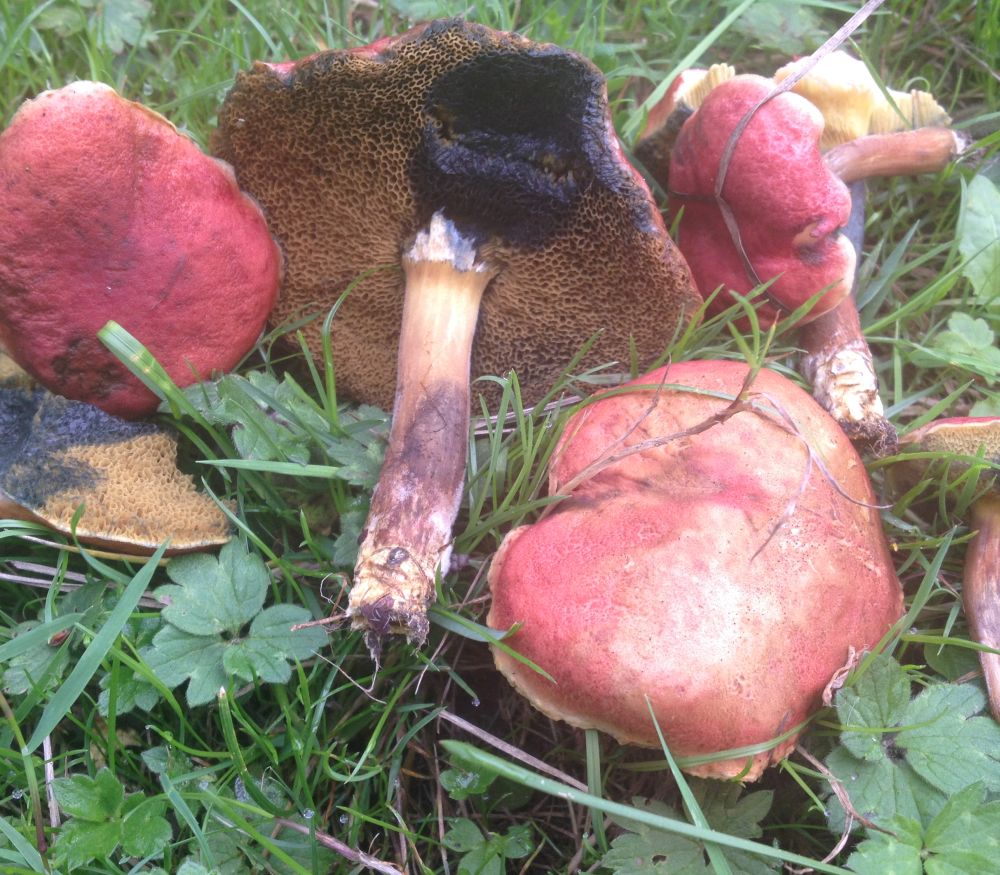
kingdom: Fungi
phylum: Basidiomycota
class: Agaricomycetes
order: Boletales
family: Boletaceae
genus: Hortiboletus
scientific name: Hortiboletus rubellus
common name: blodrød rørhat
